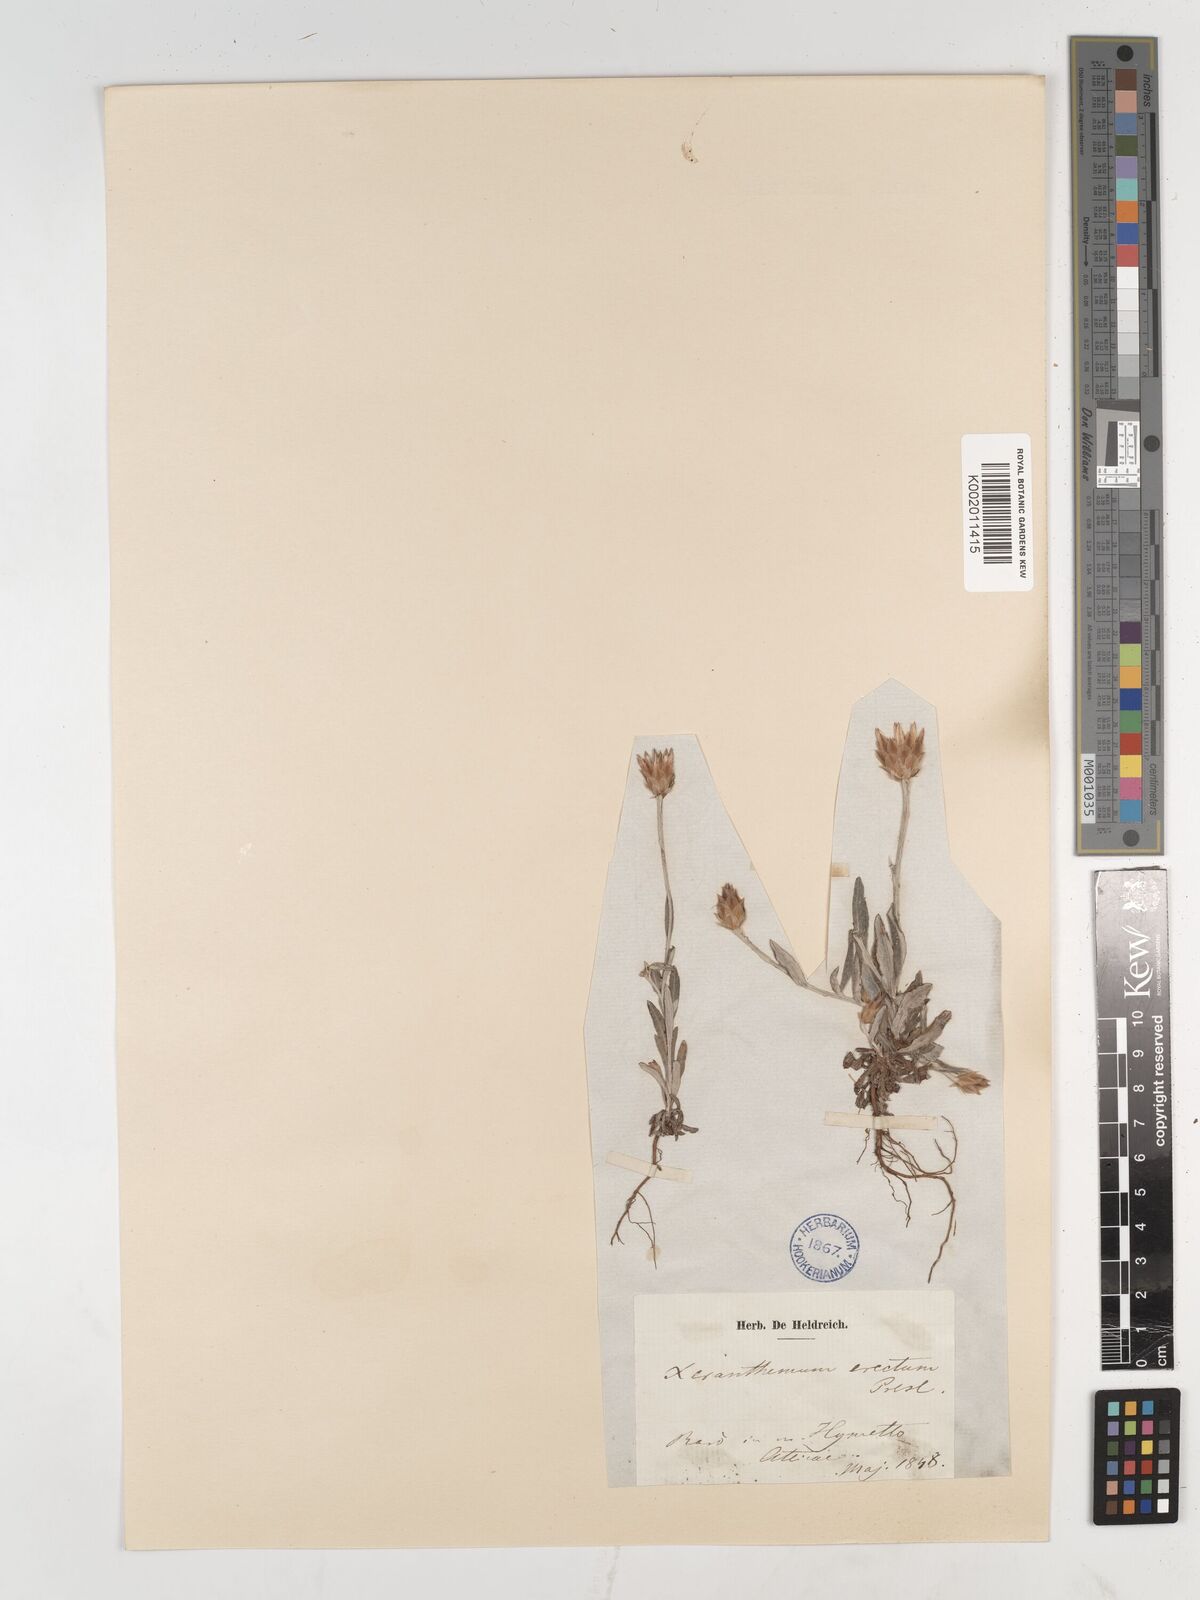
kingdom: Plantae
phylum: Tracheophyta
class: Magnoliopsida
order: Asterales
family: Asteraceae
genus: Xeranthemum
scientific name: Xeranthemum inapertum
